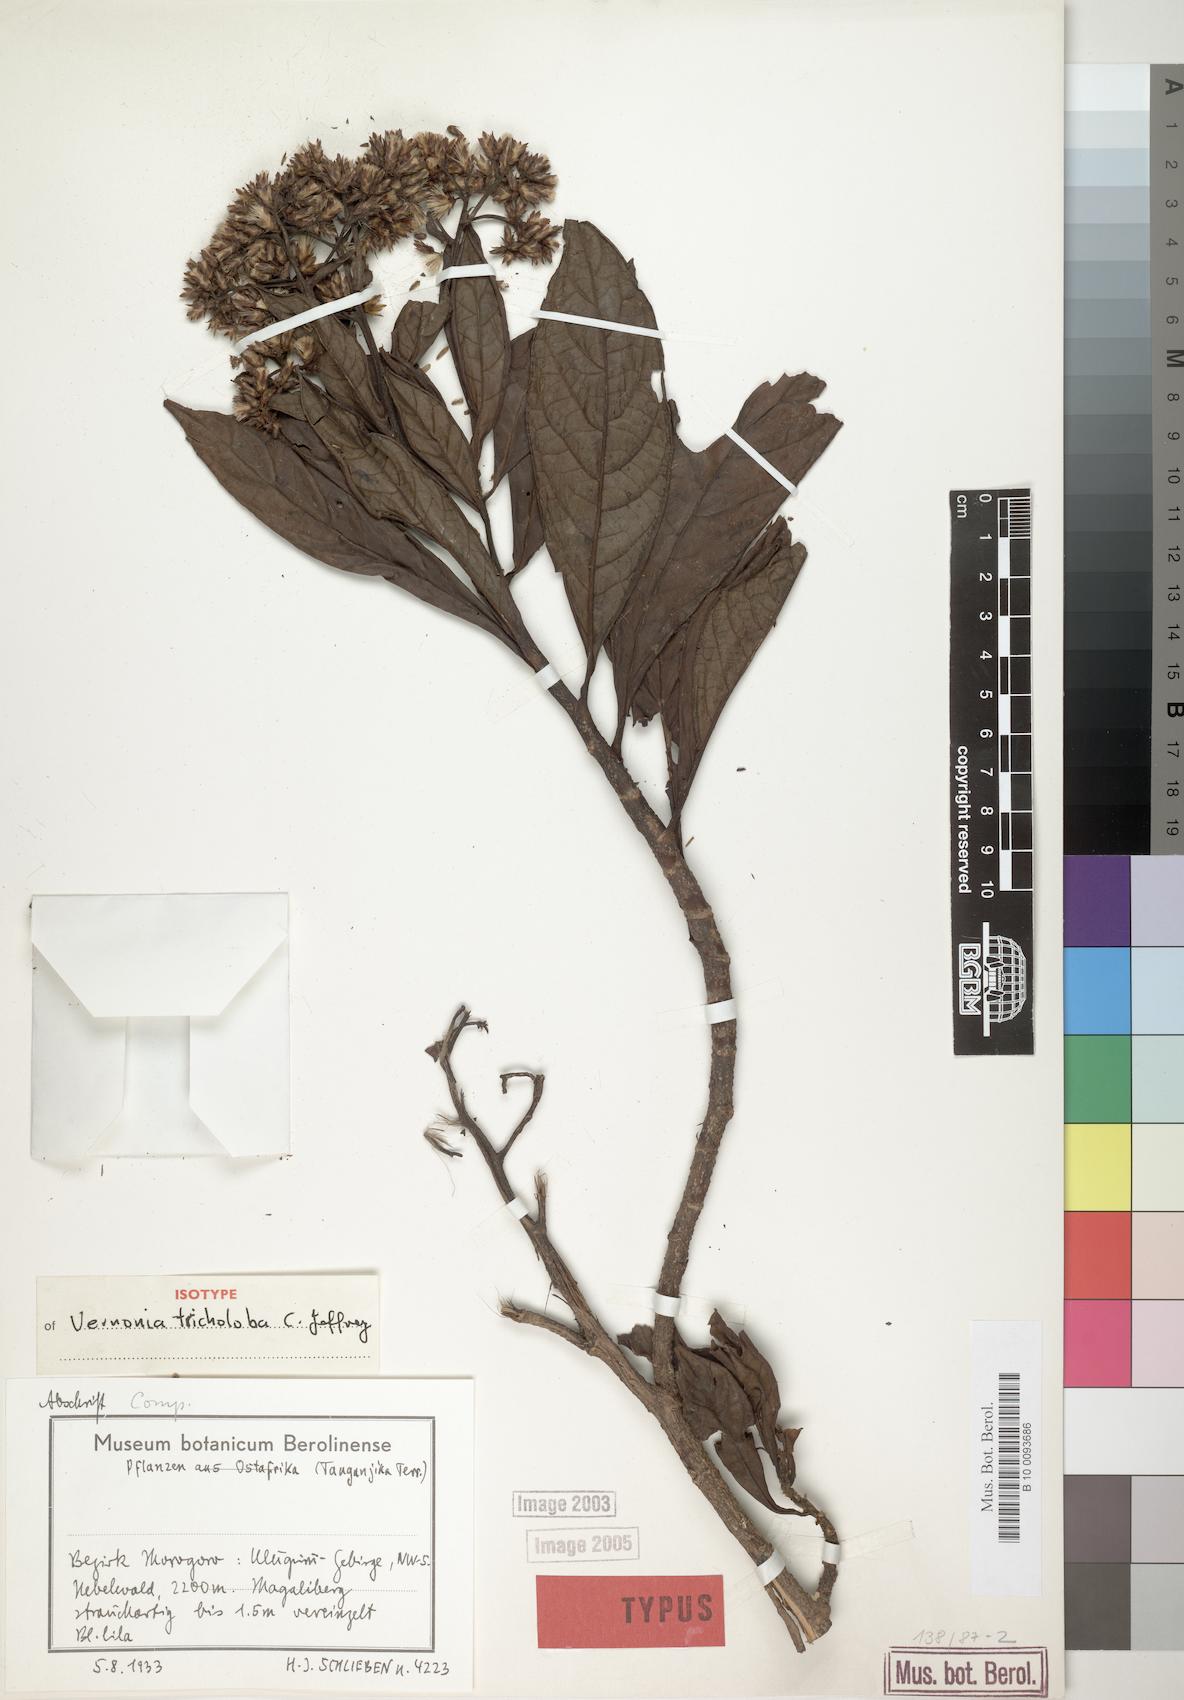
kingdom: Plantae
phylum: Tracheophyta
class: Magnoliopsida
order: Asterales
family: Asteraceae
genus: Vernonia
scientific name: Vernonia tricholoba
